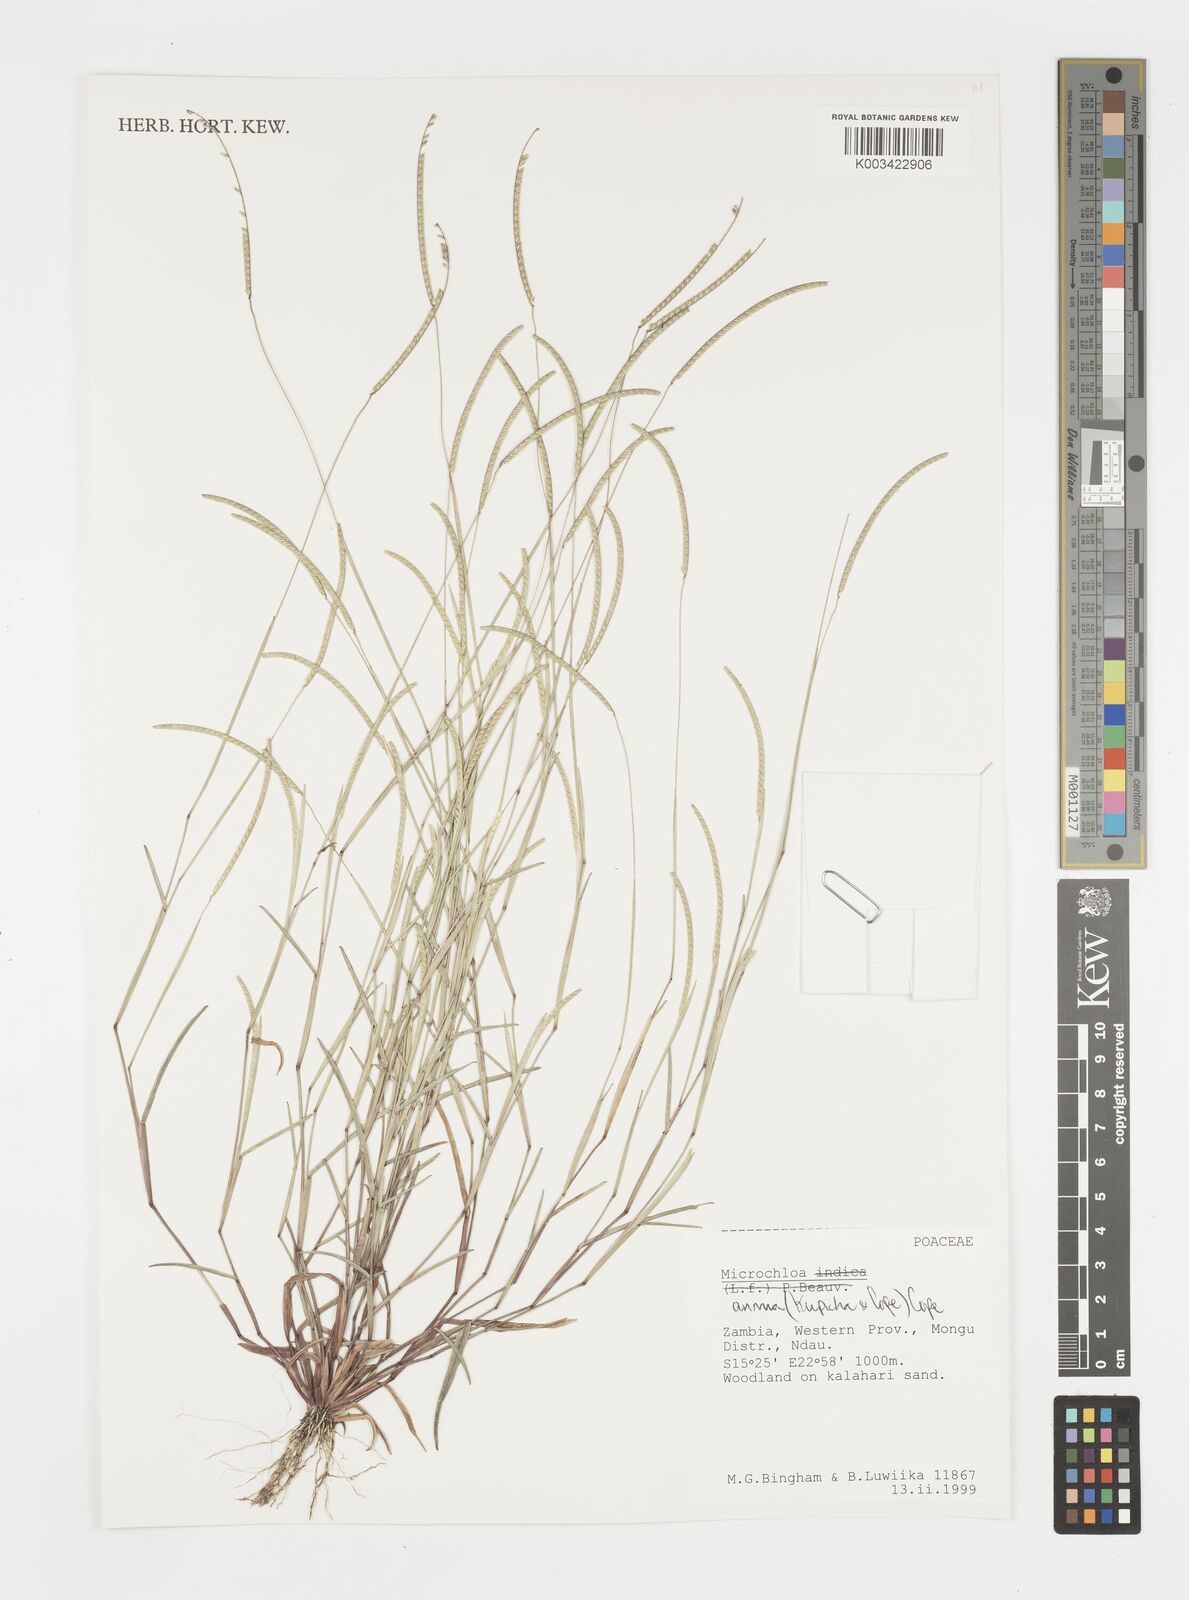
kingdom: Plantae
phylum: Tracheophyta
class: Liliopsida
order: Poales
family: Poaceae
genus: Microchloa
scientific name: Microchloa annua
